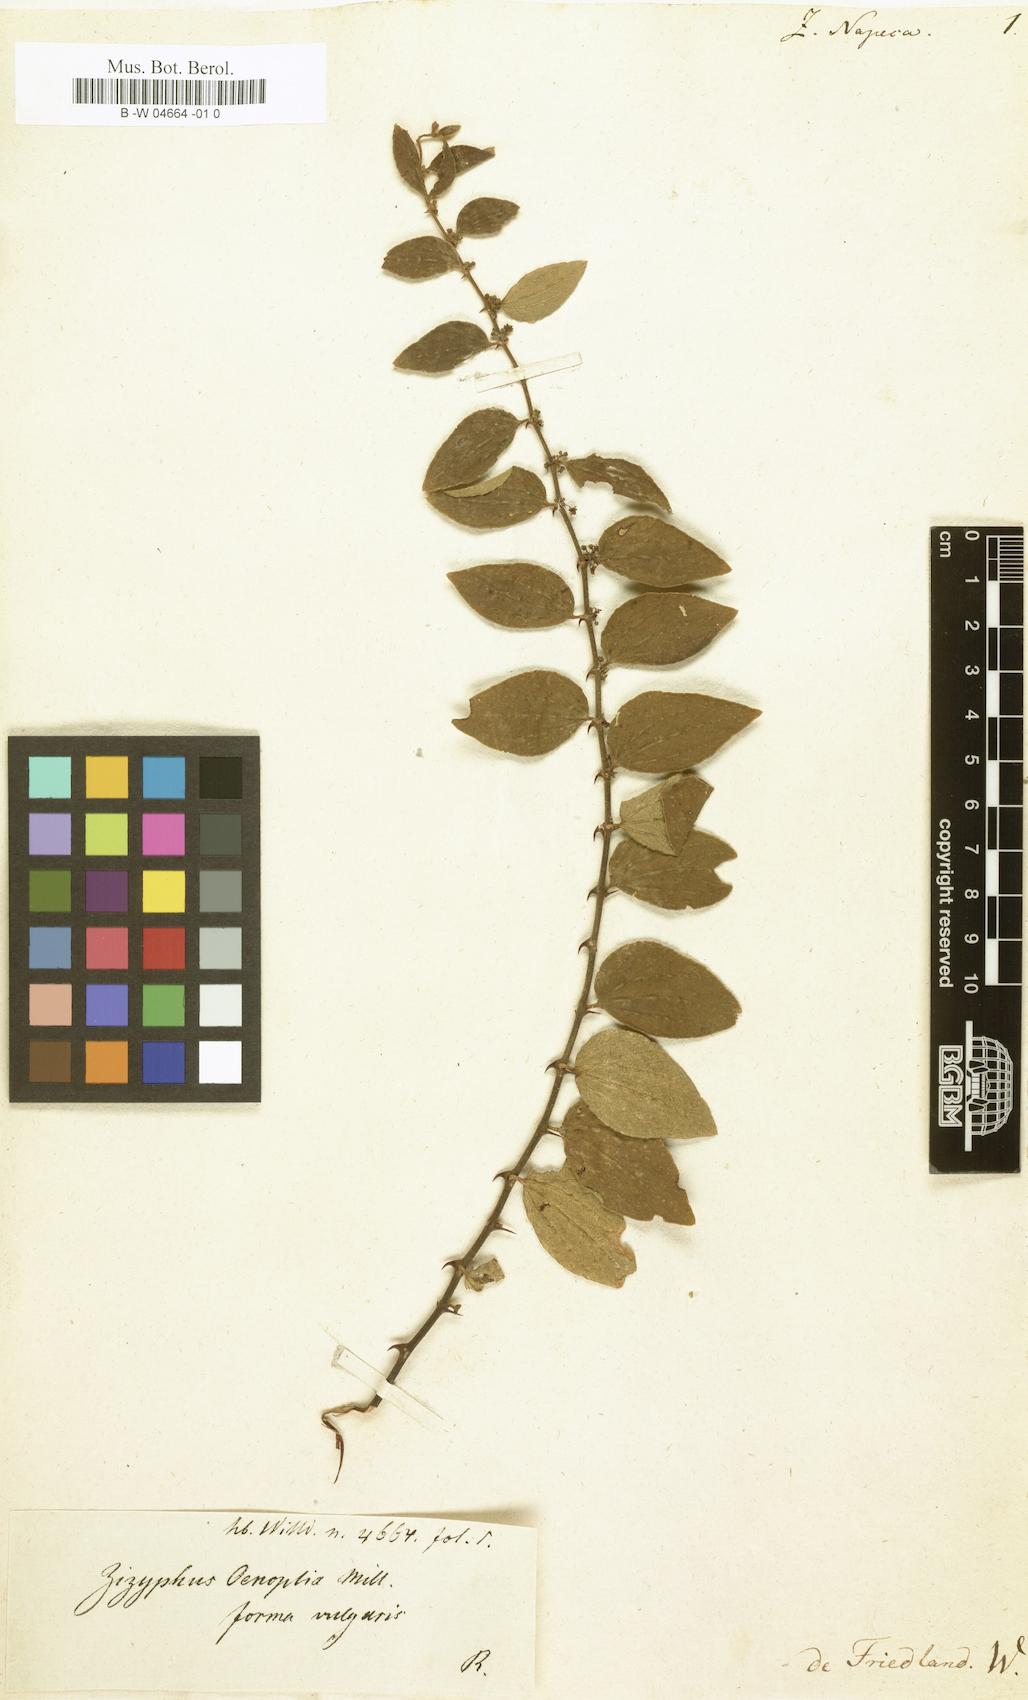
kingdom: Plantae
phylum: Tracheophyta
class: Magnoliopsida
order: Rosales
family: Rhamnaceae
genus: Ziziphus
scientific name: Ziziphus linnaei
